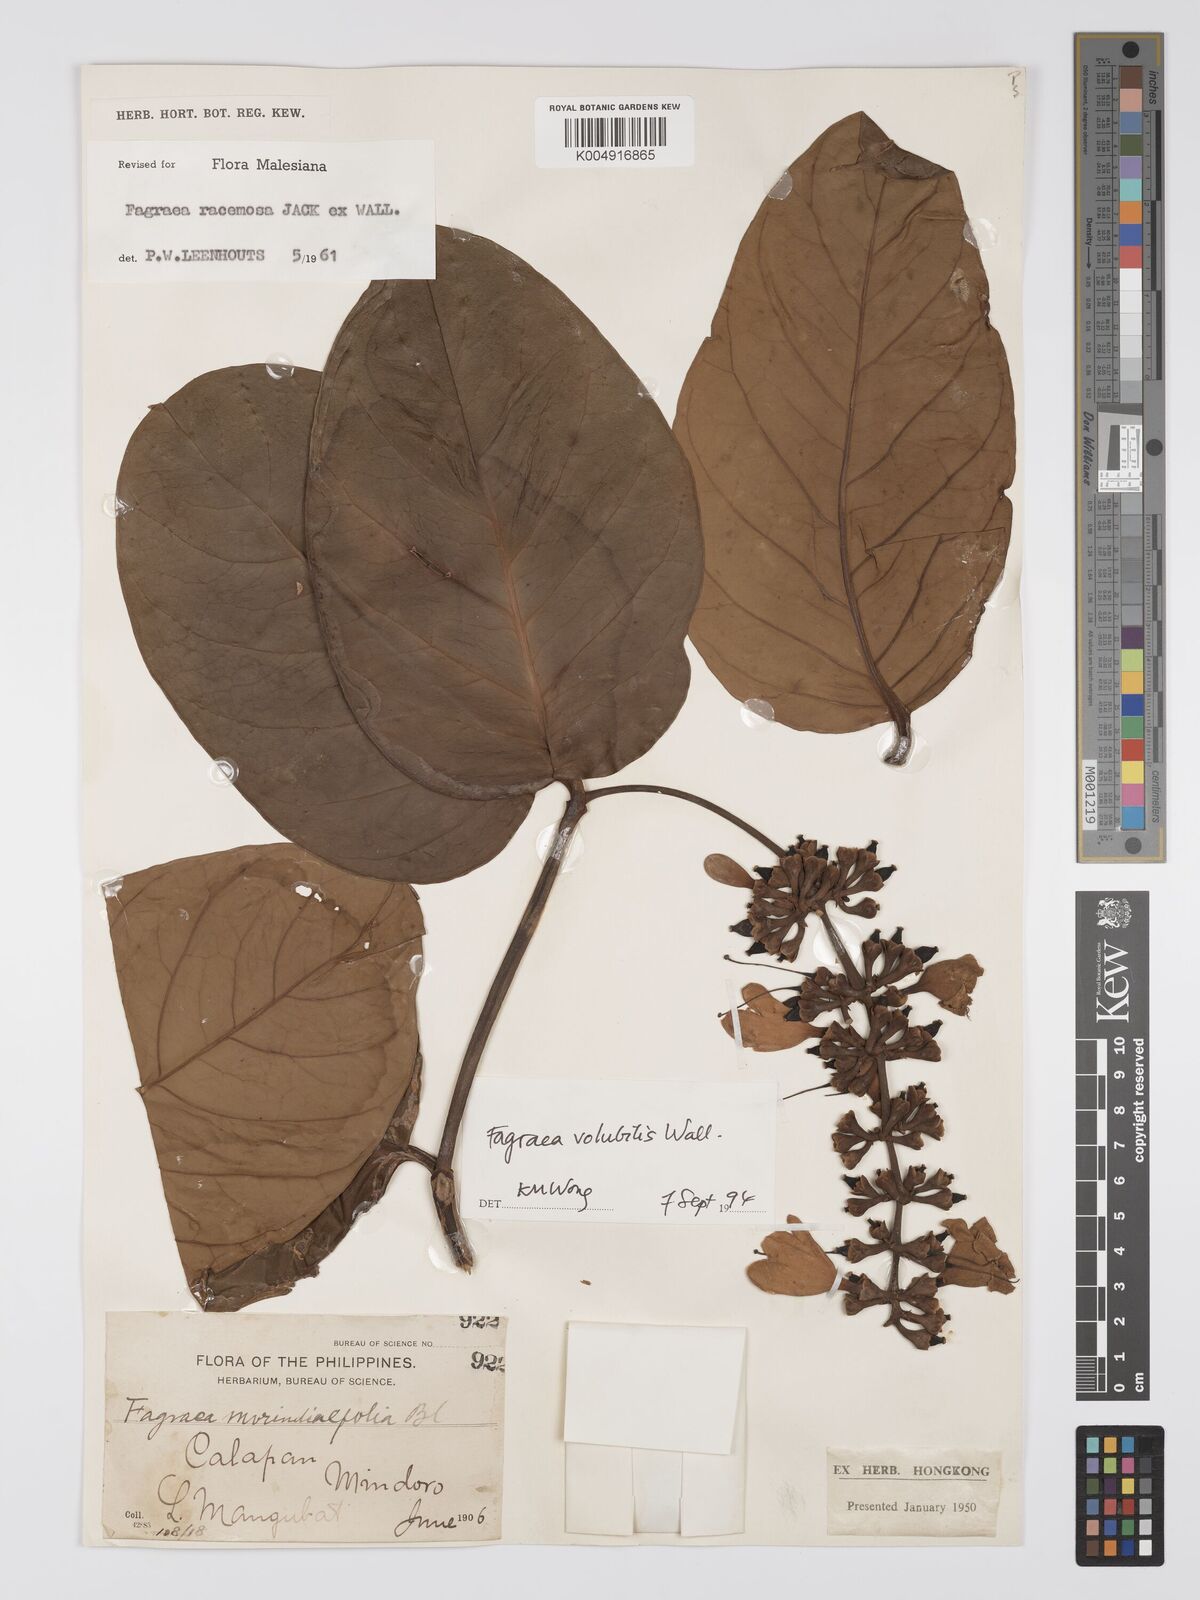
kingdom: Plantae
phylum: Tracheophyta
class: Magnoliopsida
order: Gentianales
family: Gentianaceae
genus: Utania
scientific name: Utania racemosa
